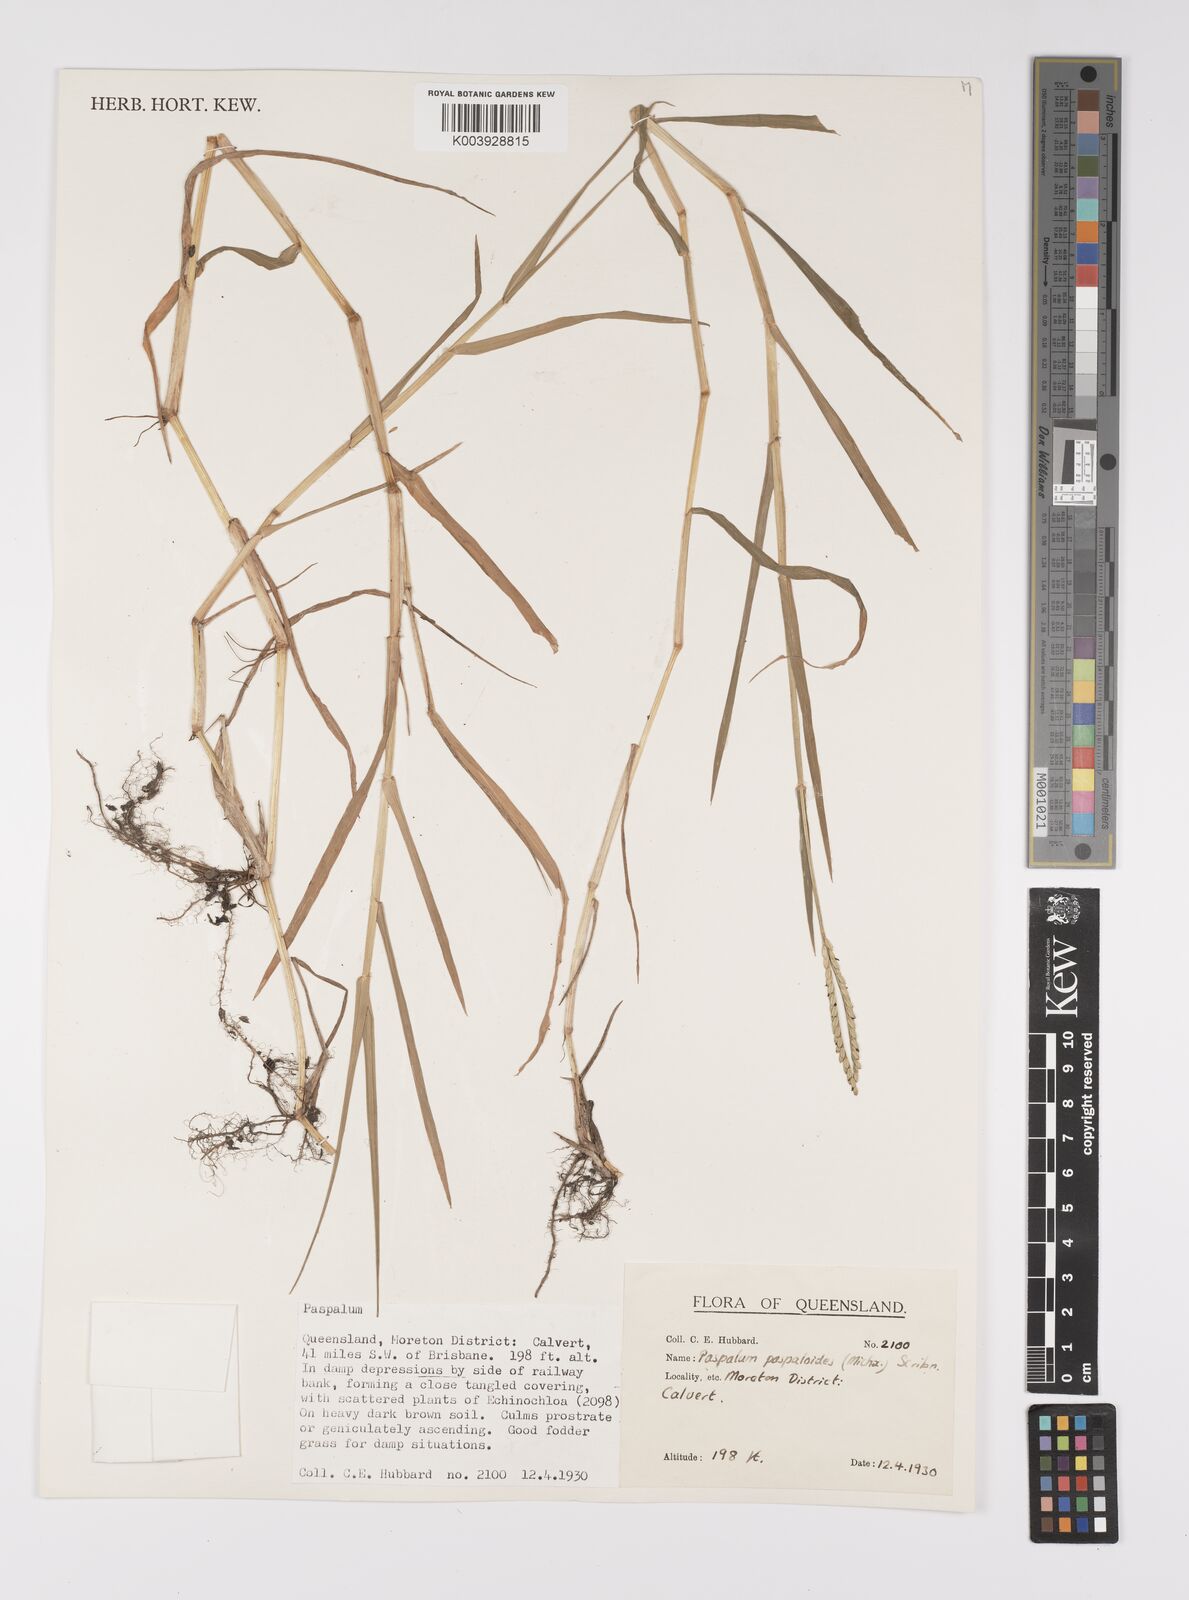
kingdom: Plantae
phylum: Tracheophyta
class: Liliopsida
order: Poales
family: Poaceae
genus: Paspalum
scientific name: Paspalum distichum
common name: Knotgrass
